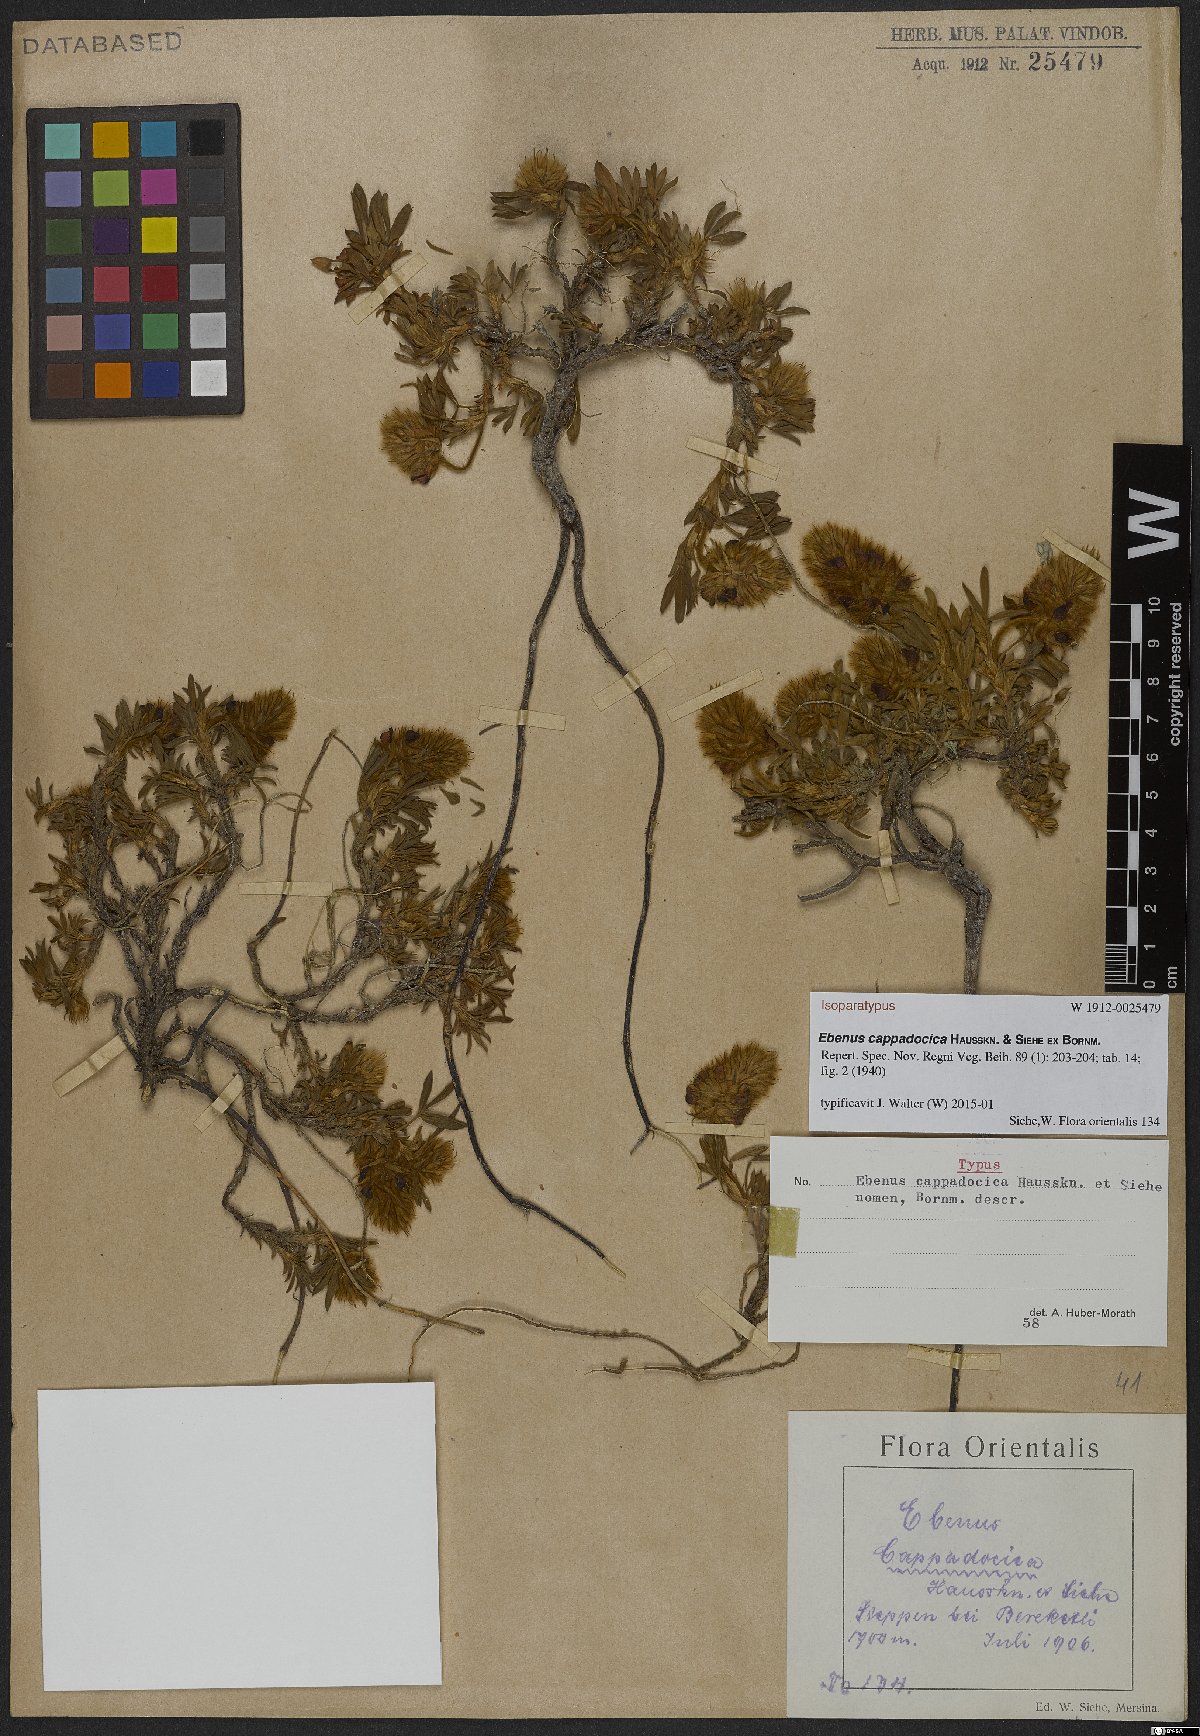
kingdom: Plantae
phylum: Tracheophyta
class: Magnoliopsida
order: Fabales
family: Fabaceae
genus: Ebenus
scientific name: Ebenus cappadocica
